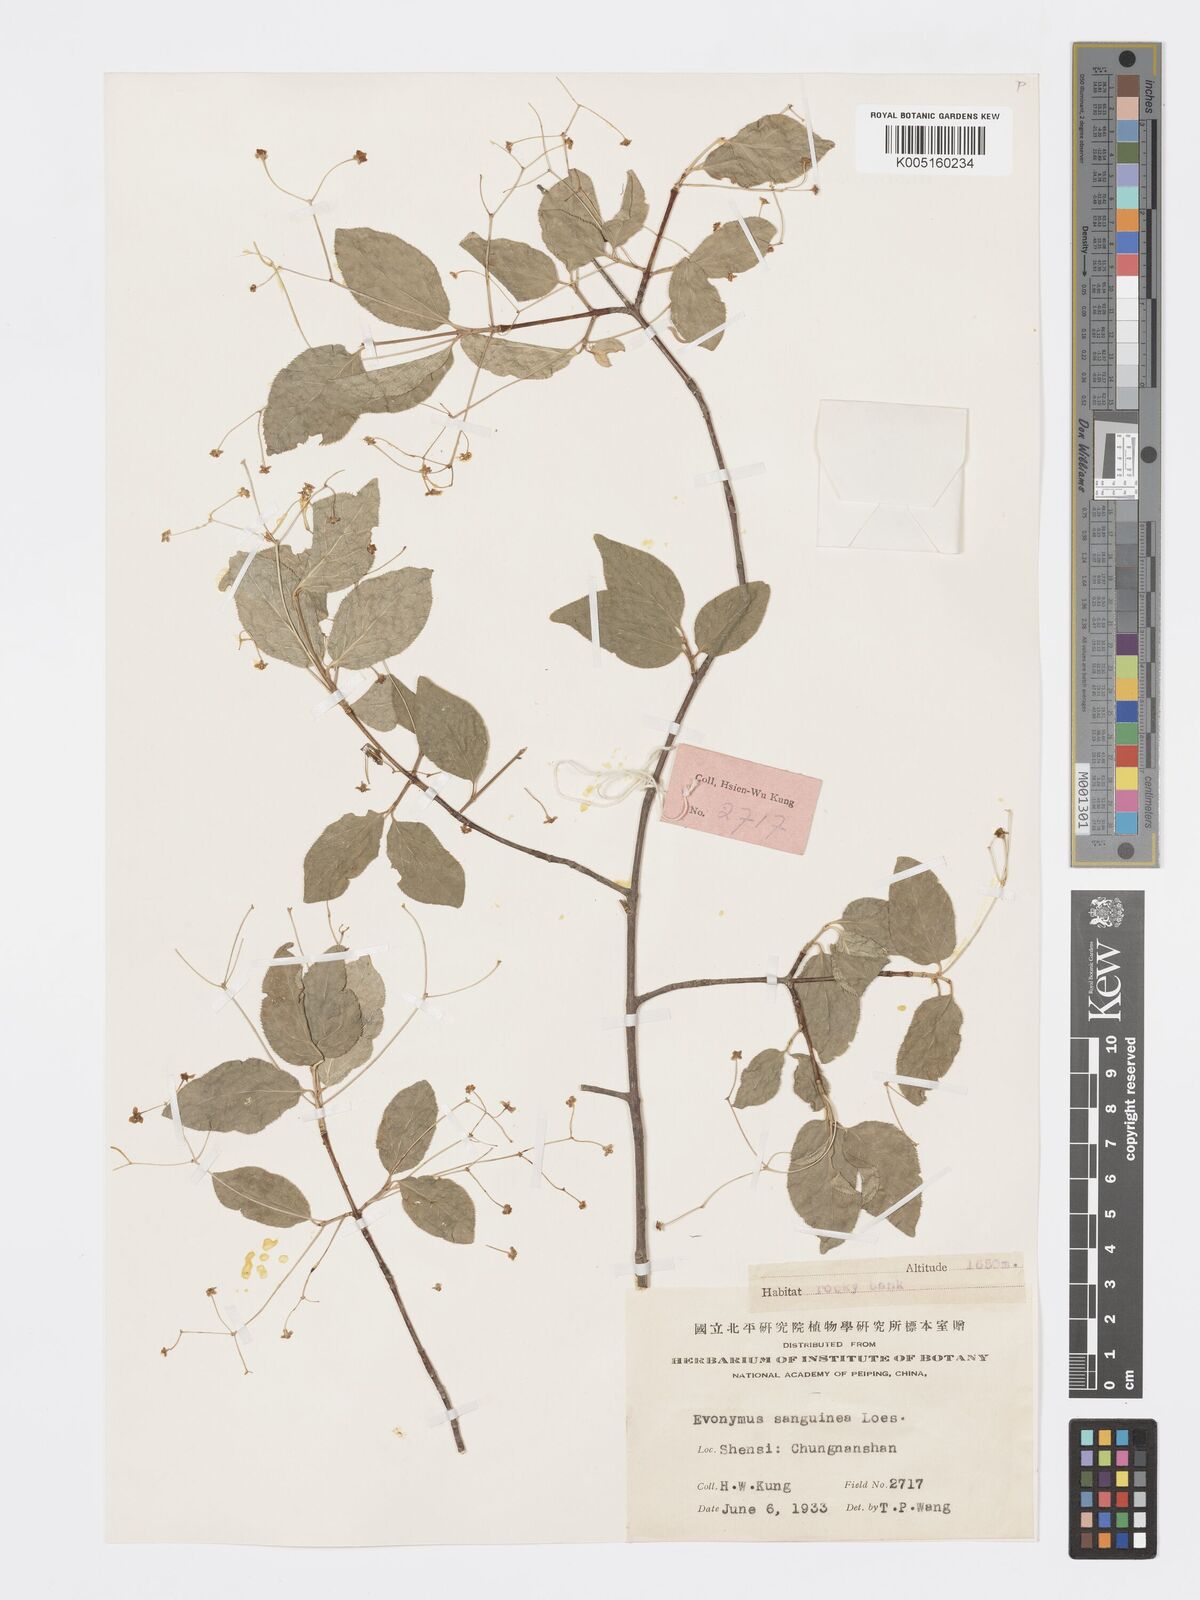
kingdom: Plantae
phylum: Tracheophyta
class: Magnoliopsida
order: Celastrales
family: Celastraceae
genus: Euonymus
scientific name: Euonymus giraldii
